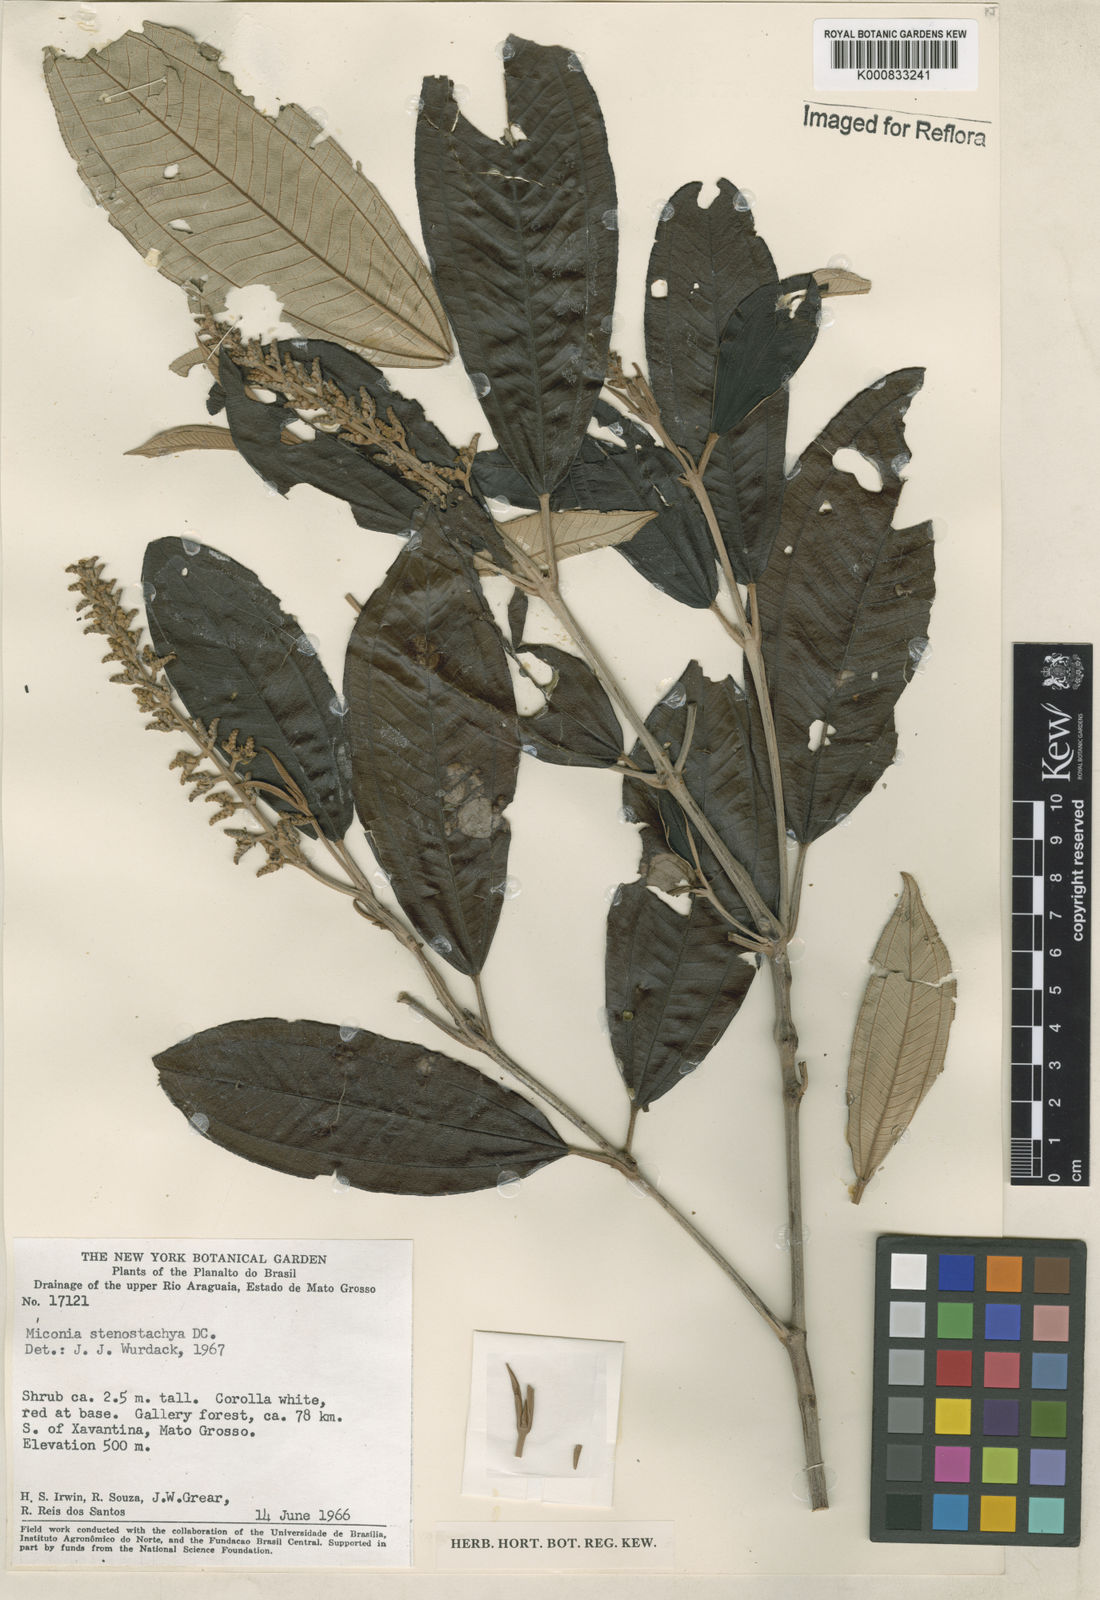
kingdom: Plantae
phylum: Tracheophyta
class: Magnoliopsida
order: Myrtales
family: Melastomataceae
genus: Miconia
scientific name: Miconia stenostachya
